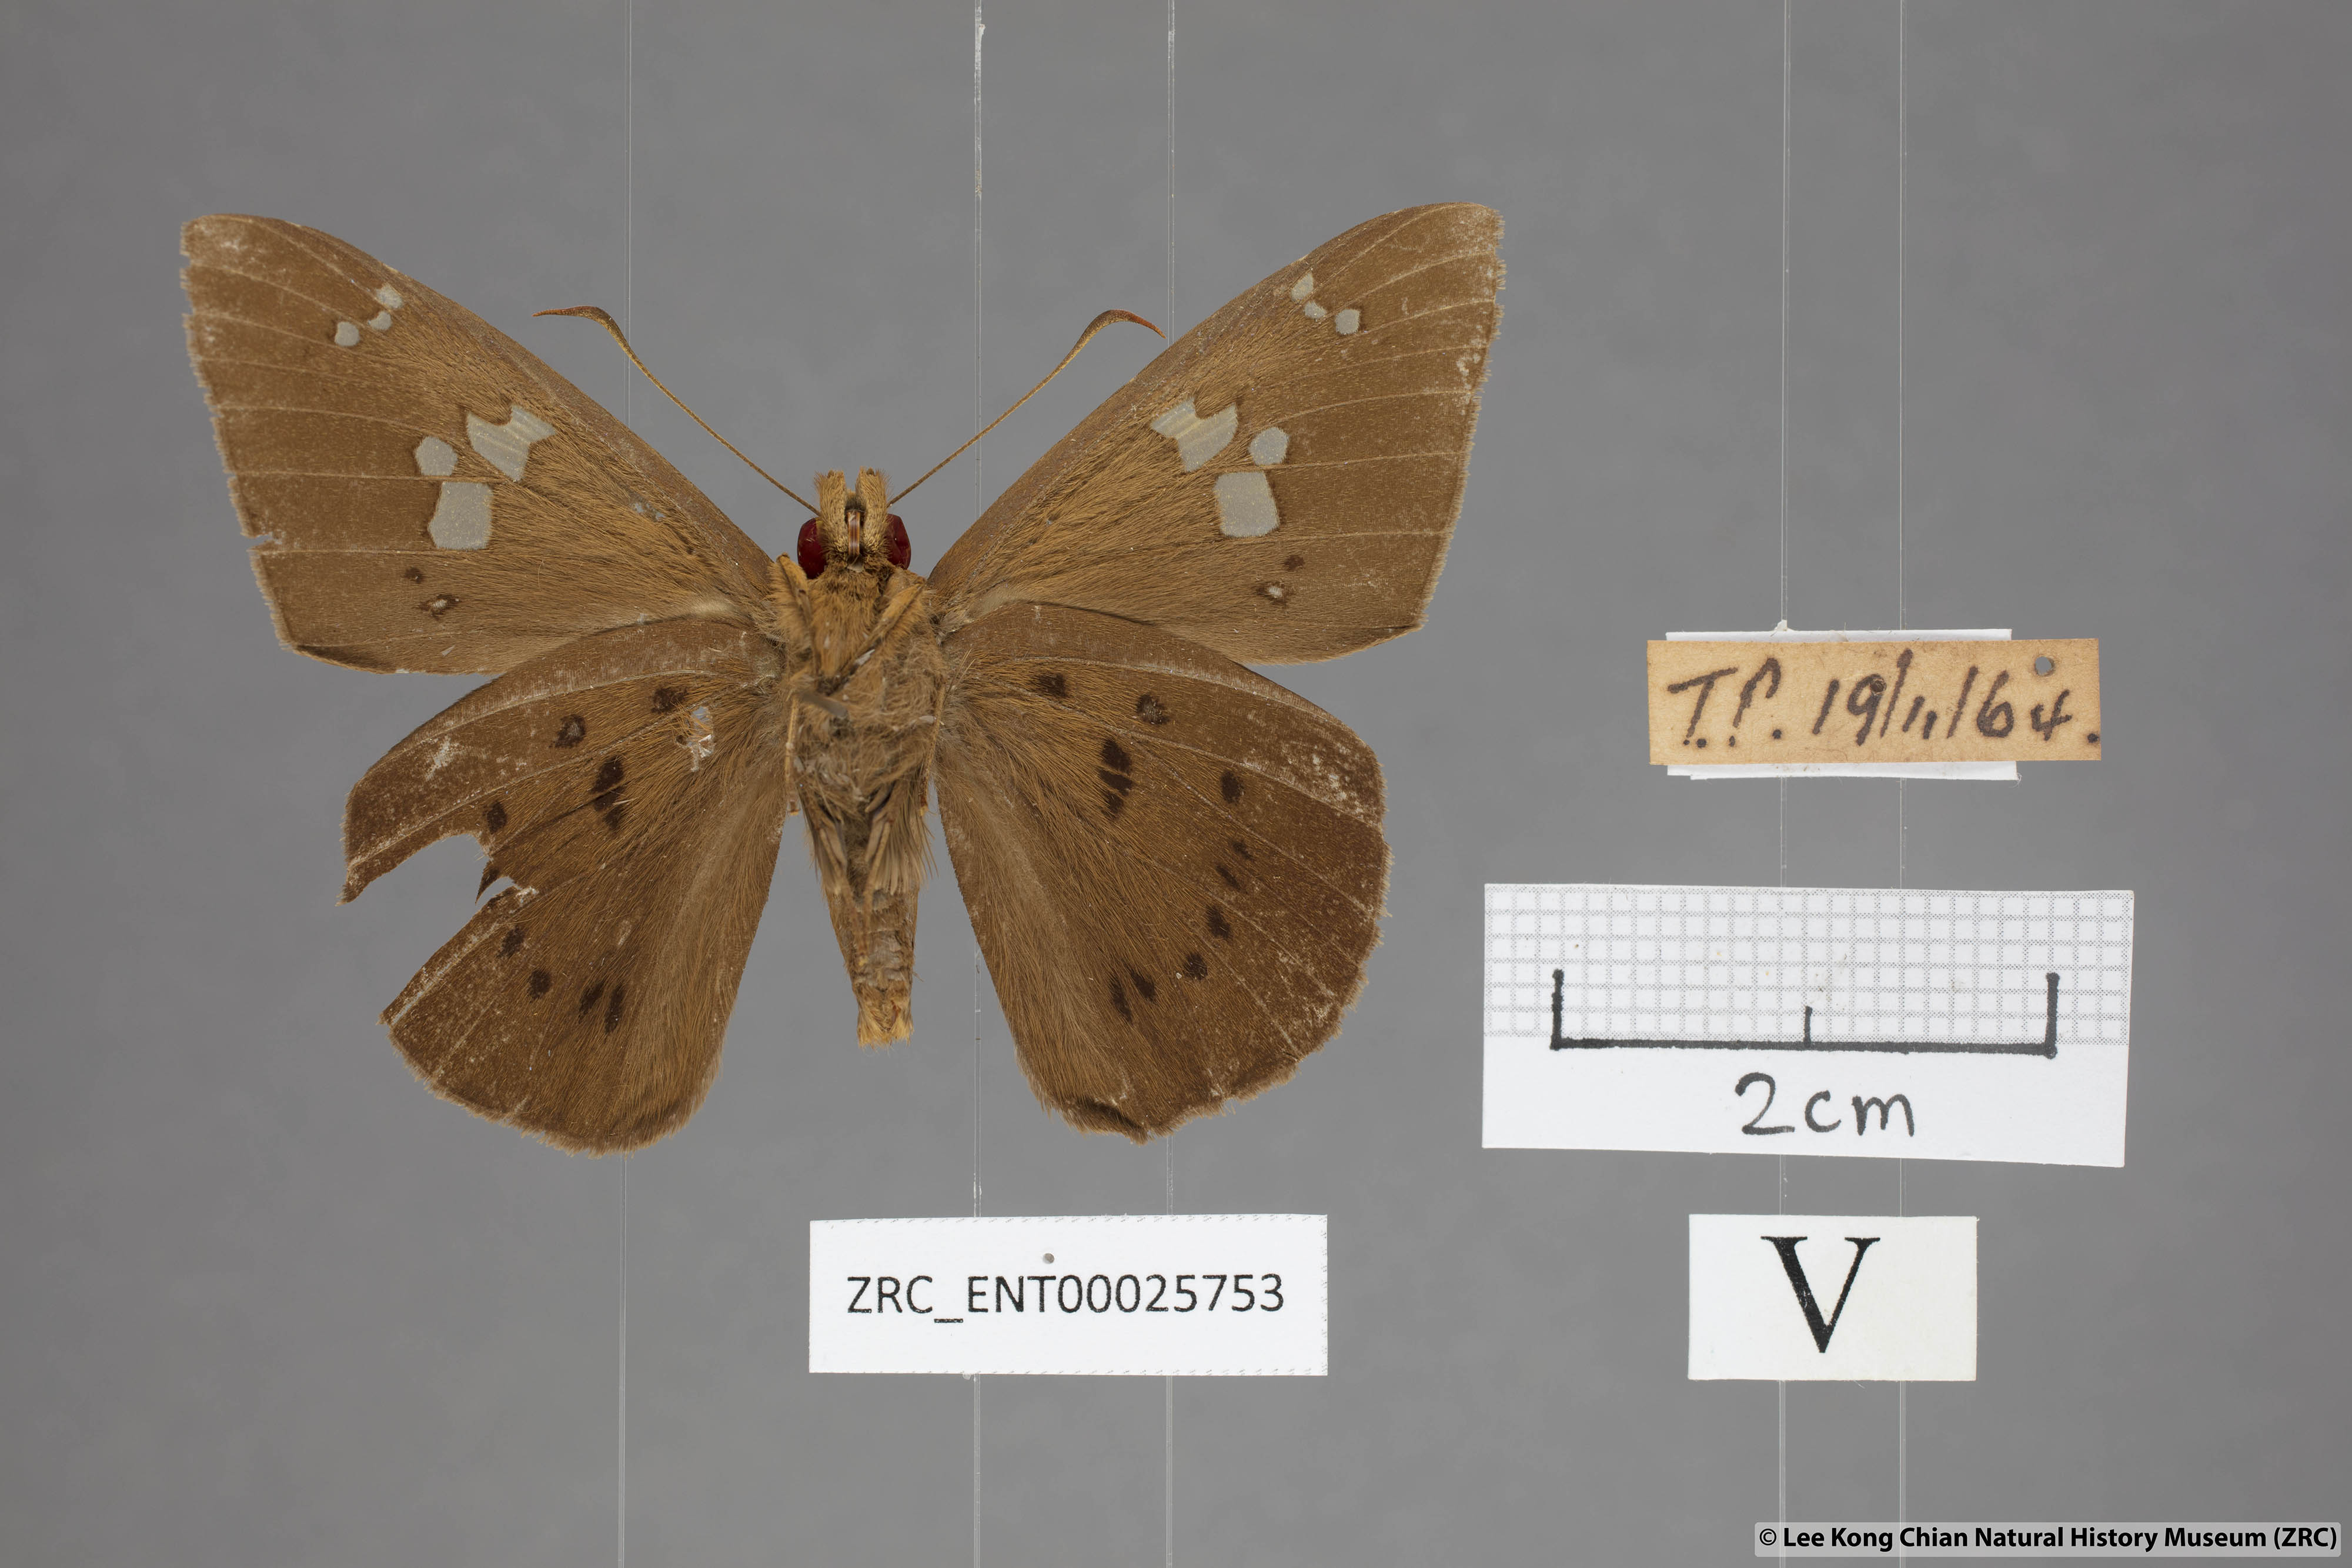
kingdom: Animalia
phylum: Arthropoda
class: Insecta
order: Lepidoptera
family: Hesperiidae
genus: Capila
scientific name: Capila phanaeus
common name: Fulvous dawnfly
